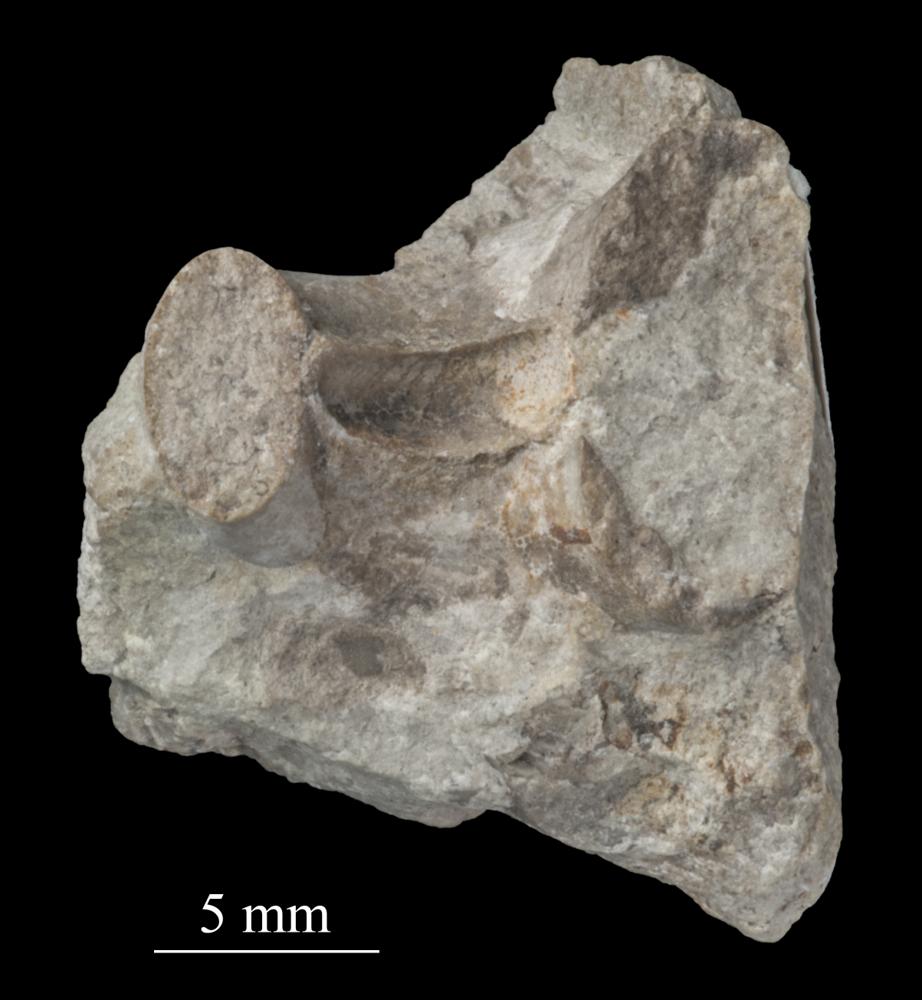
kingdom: Animalia
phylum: Mollusca
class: Gastropoda
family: Bellerophontidae
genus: Bellerophon
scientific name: Bellerophon
